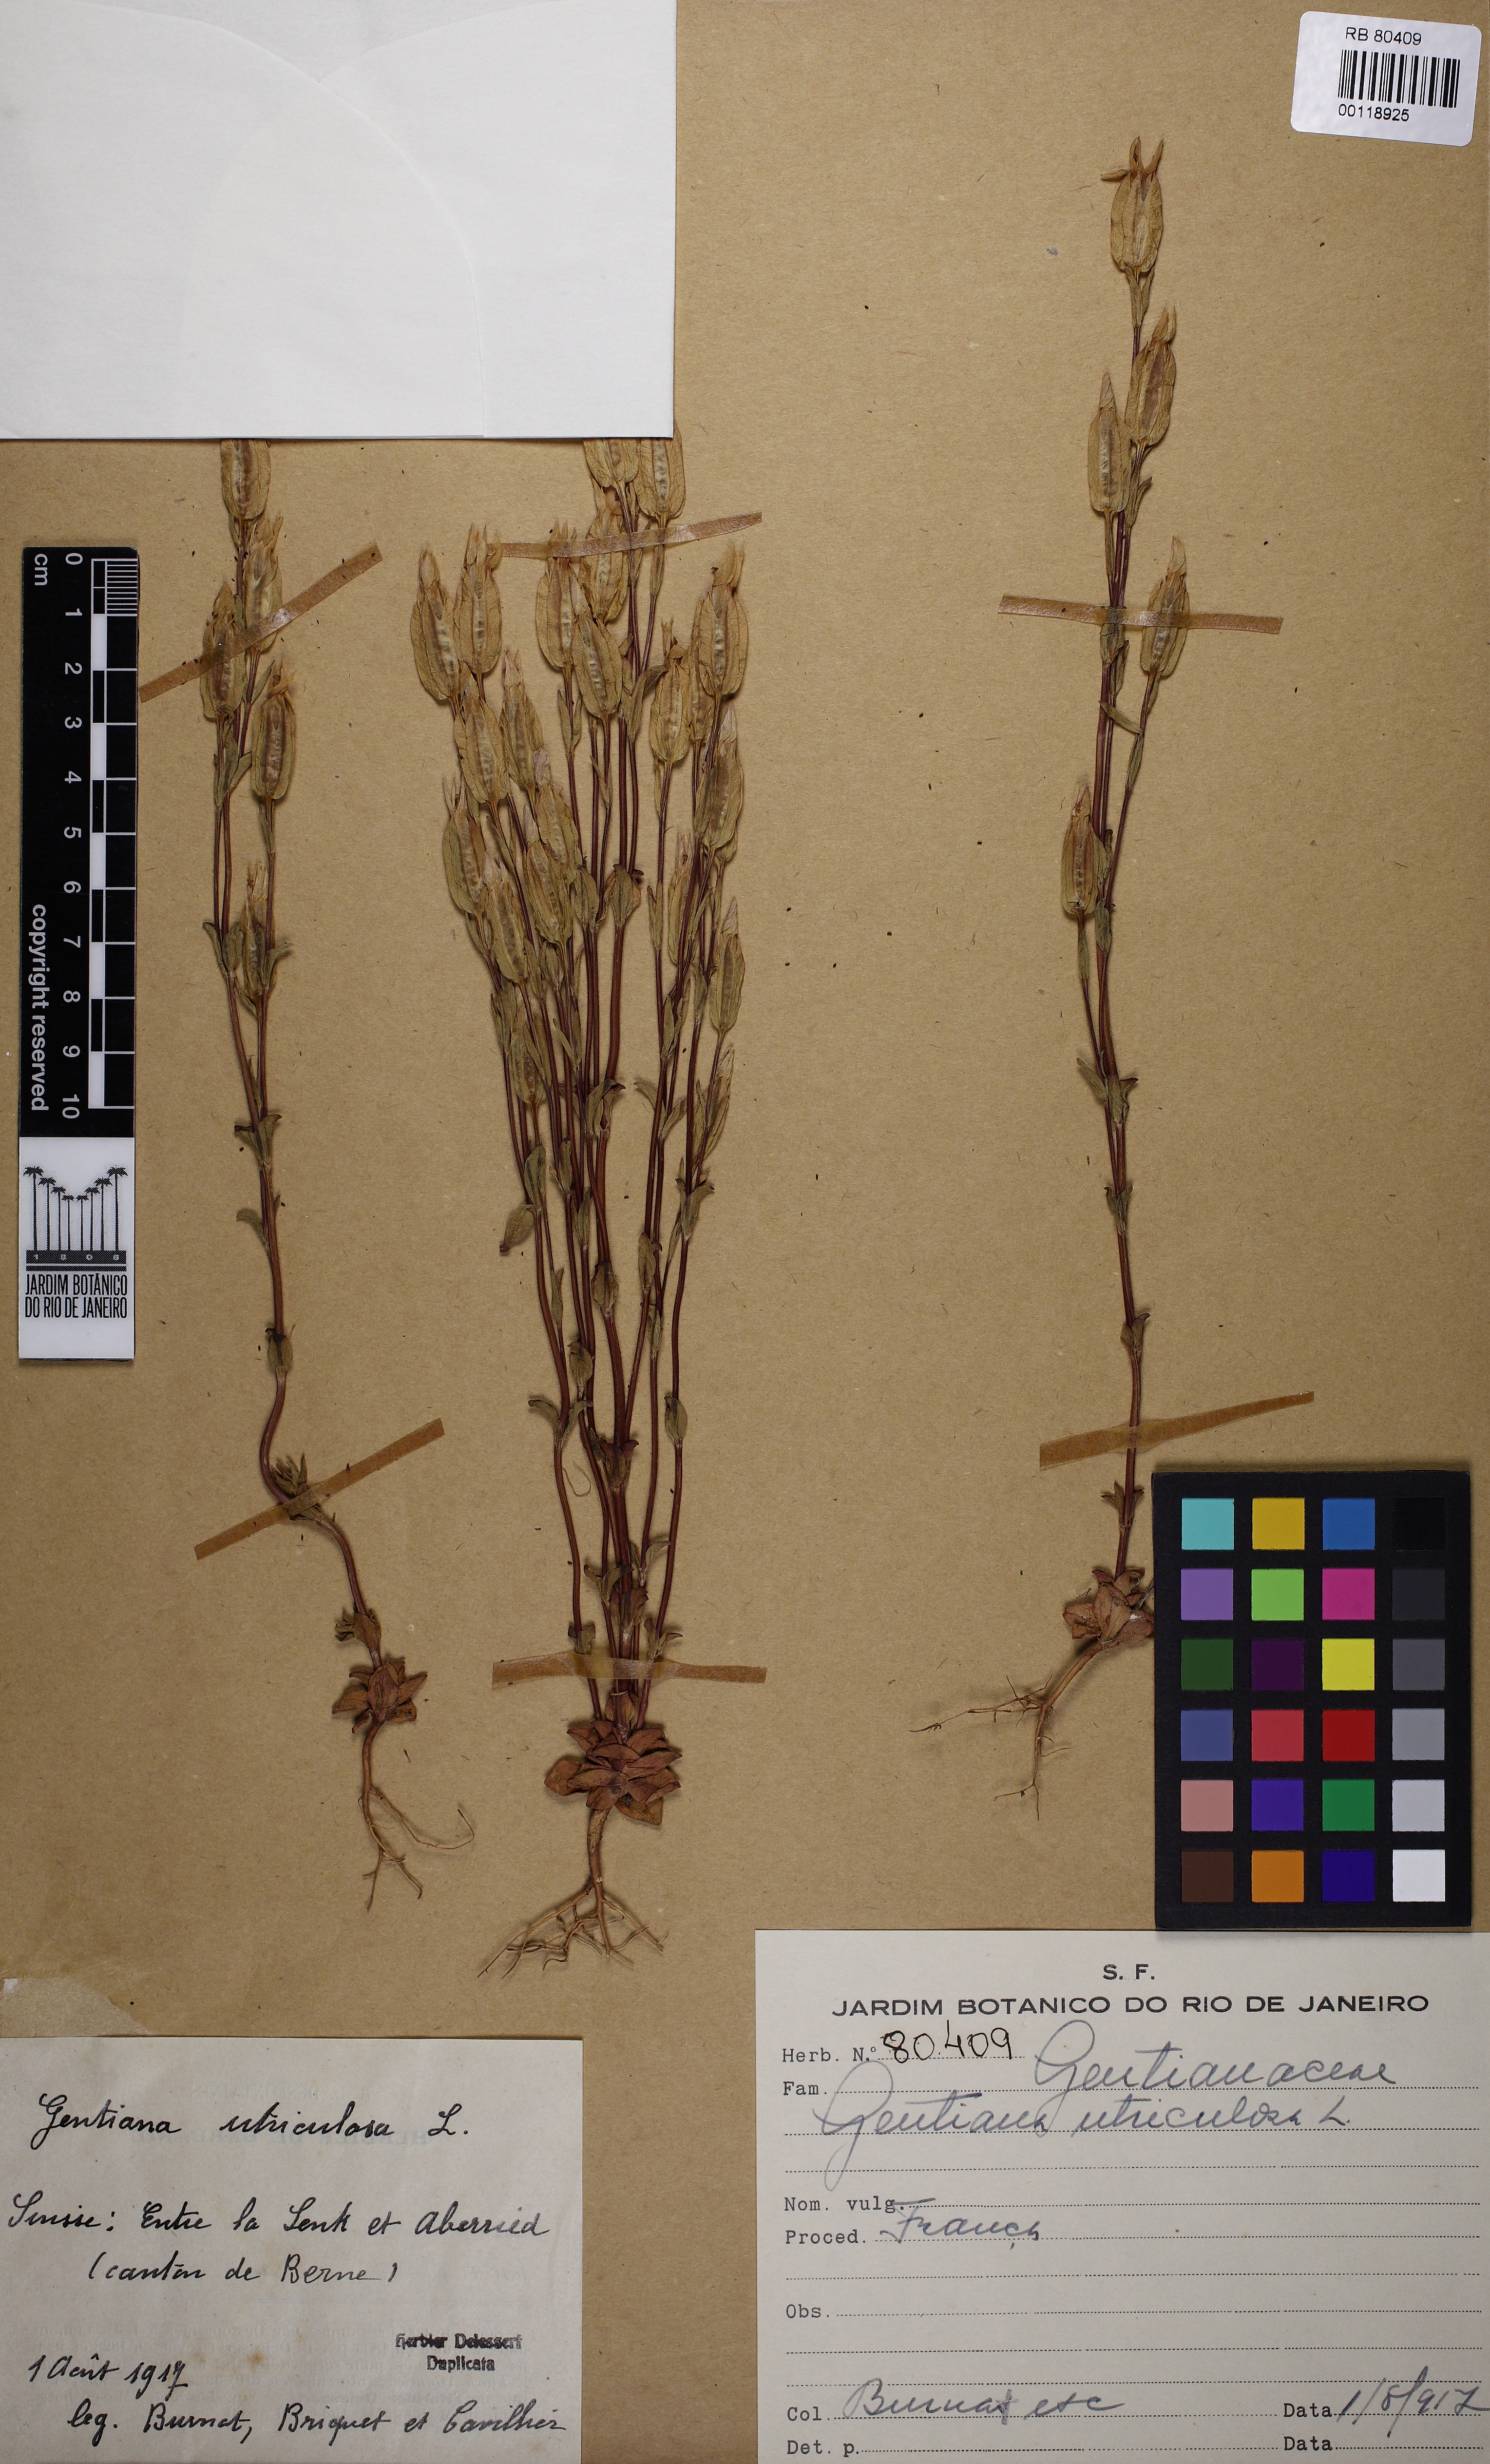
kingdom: Plantae
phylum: Tracheophyta
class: Magnoliopsida
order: Gentianales
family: Gentianaceae
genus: Gentiana
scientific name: Gentiana utriculosa
